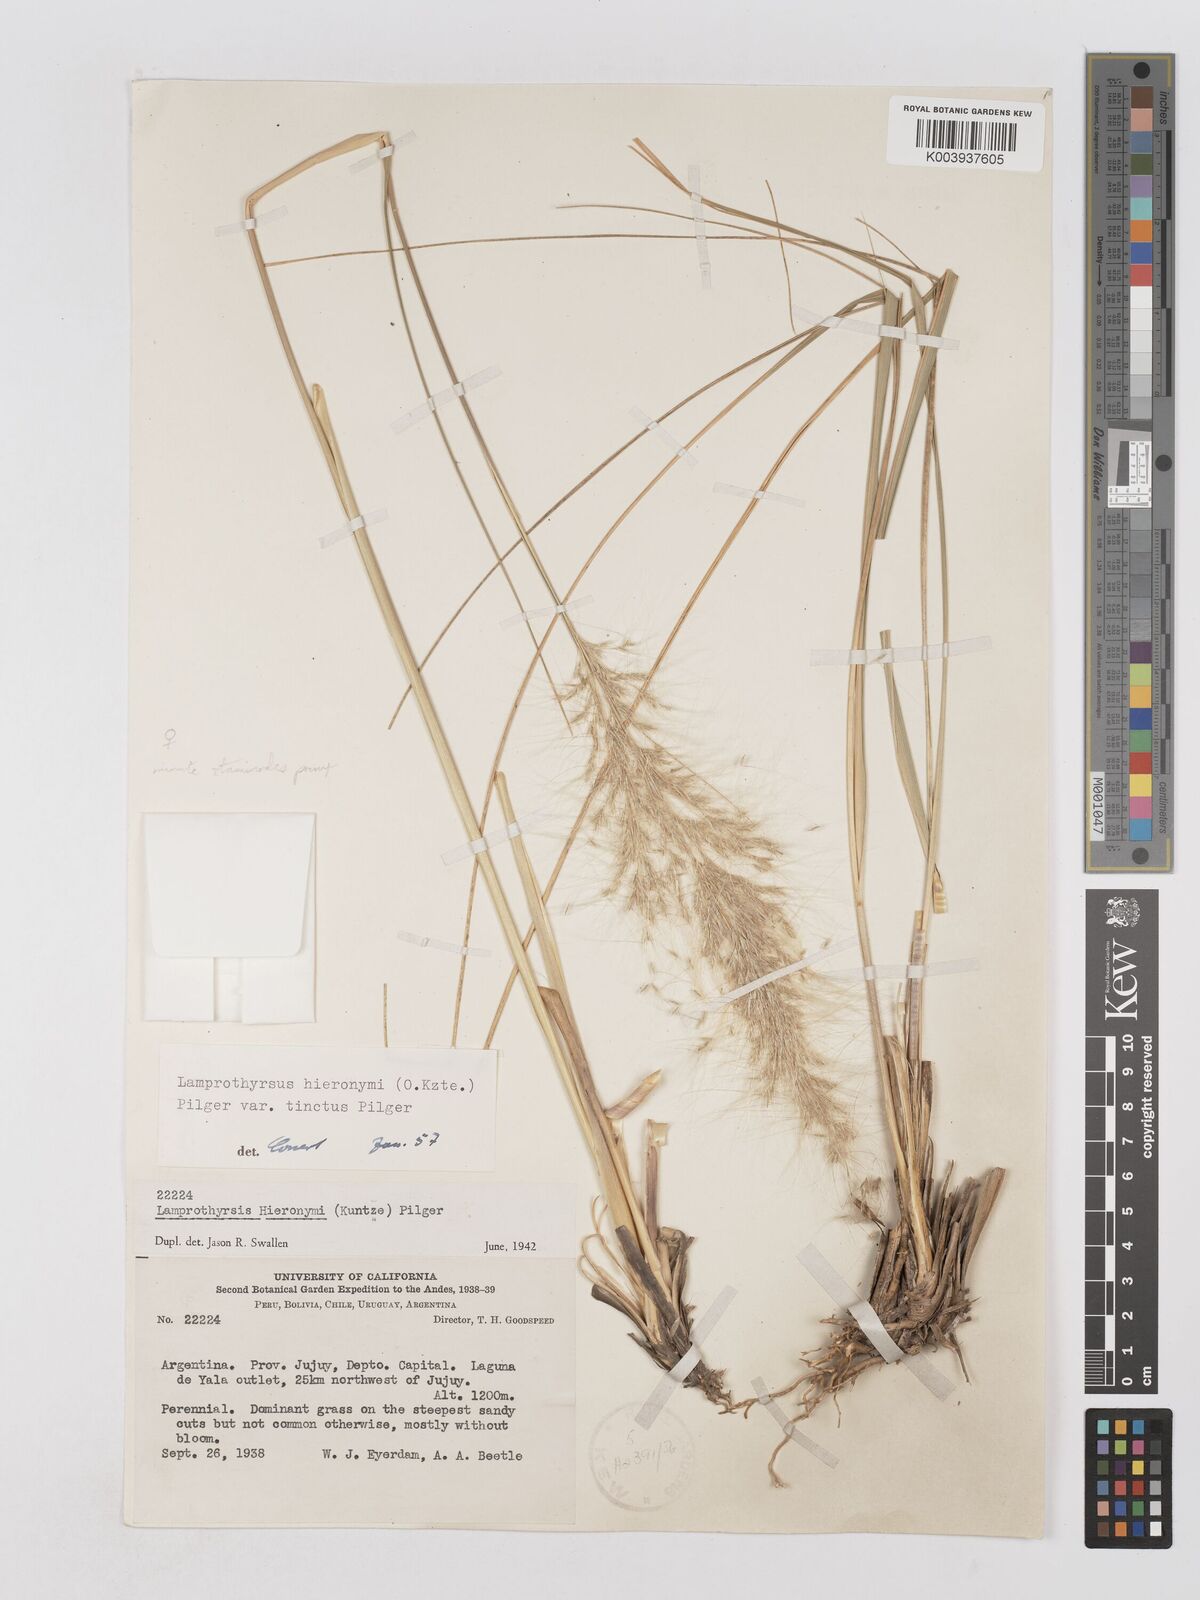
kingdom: Plantae
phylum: Tracheophyta
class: Liliopsida
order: Poales
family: Poaceae
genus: Cortaderia
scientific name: Cortaderia hieronymi
